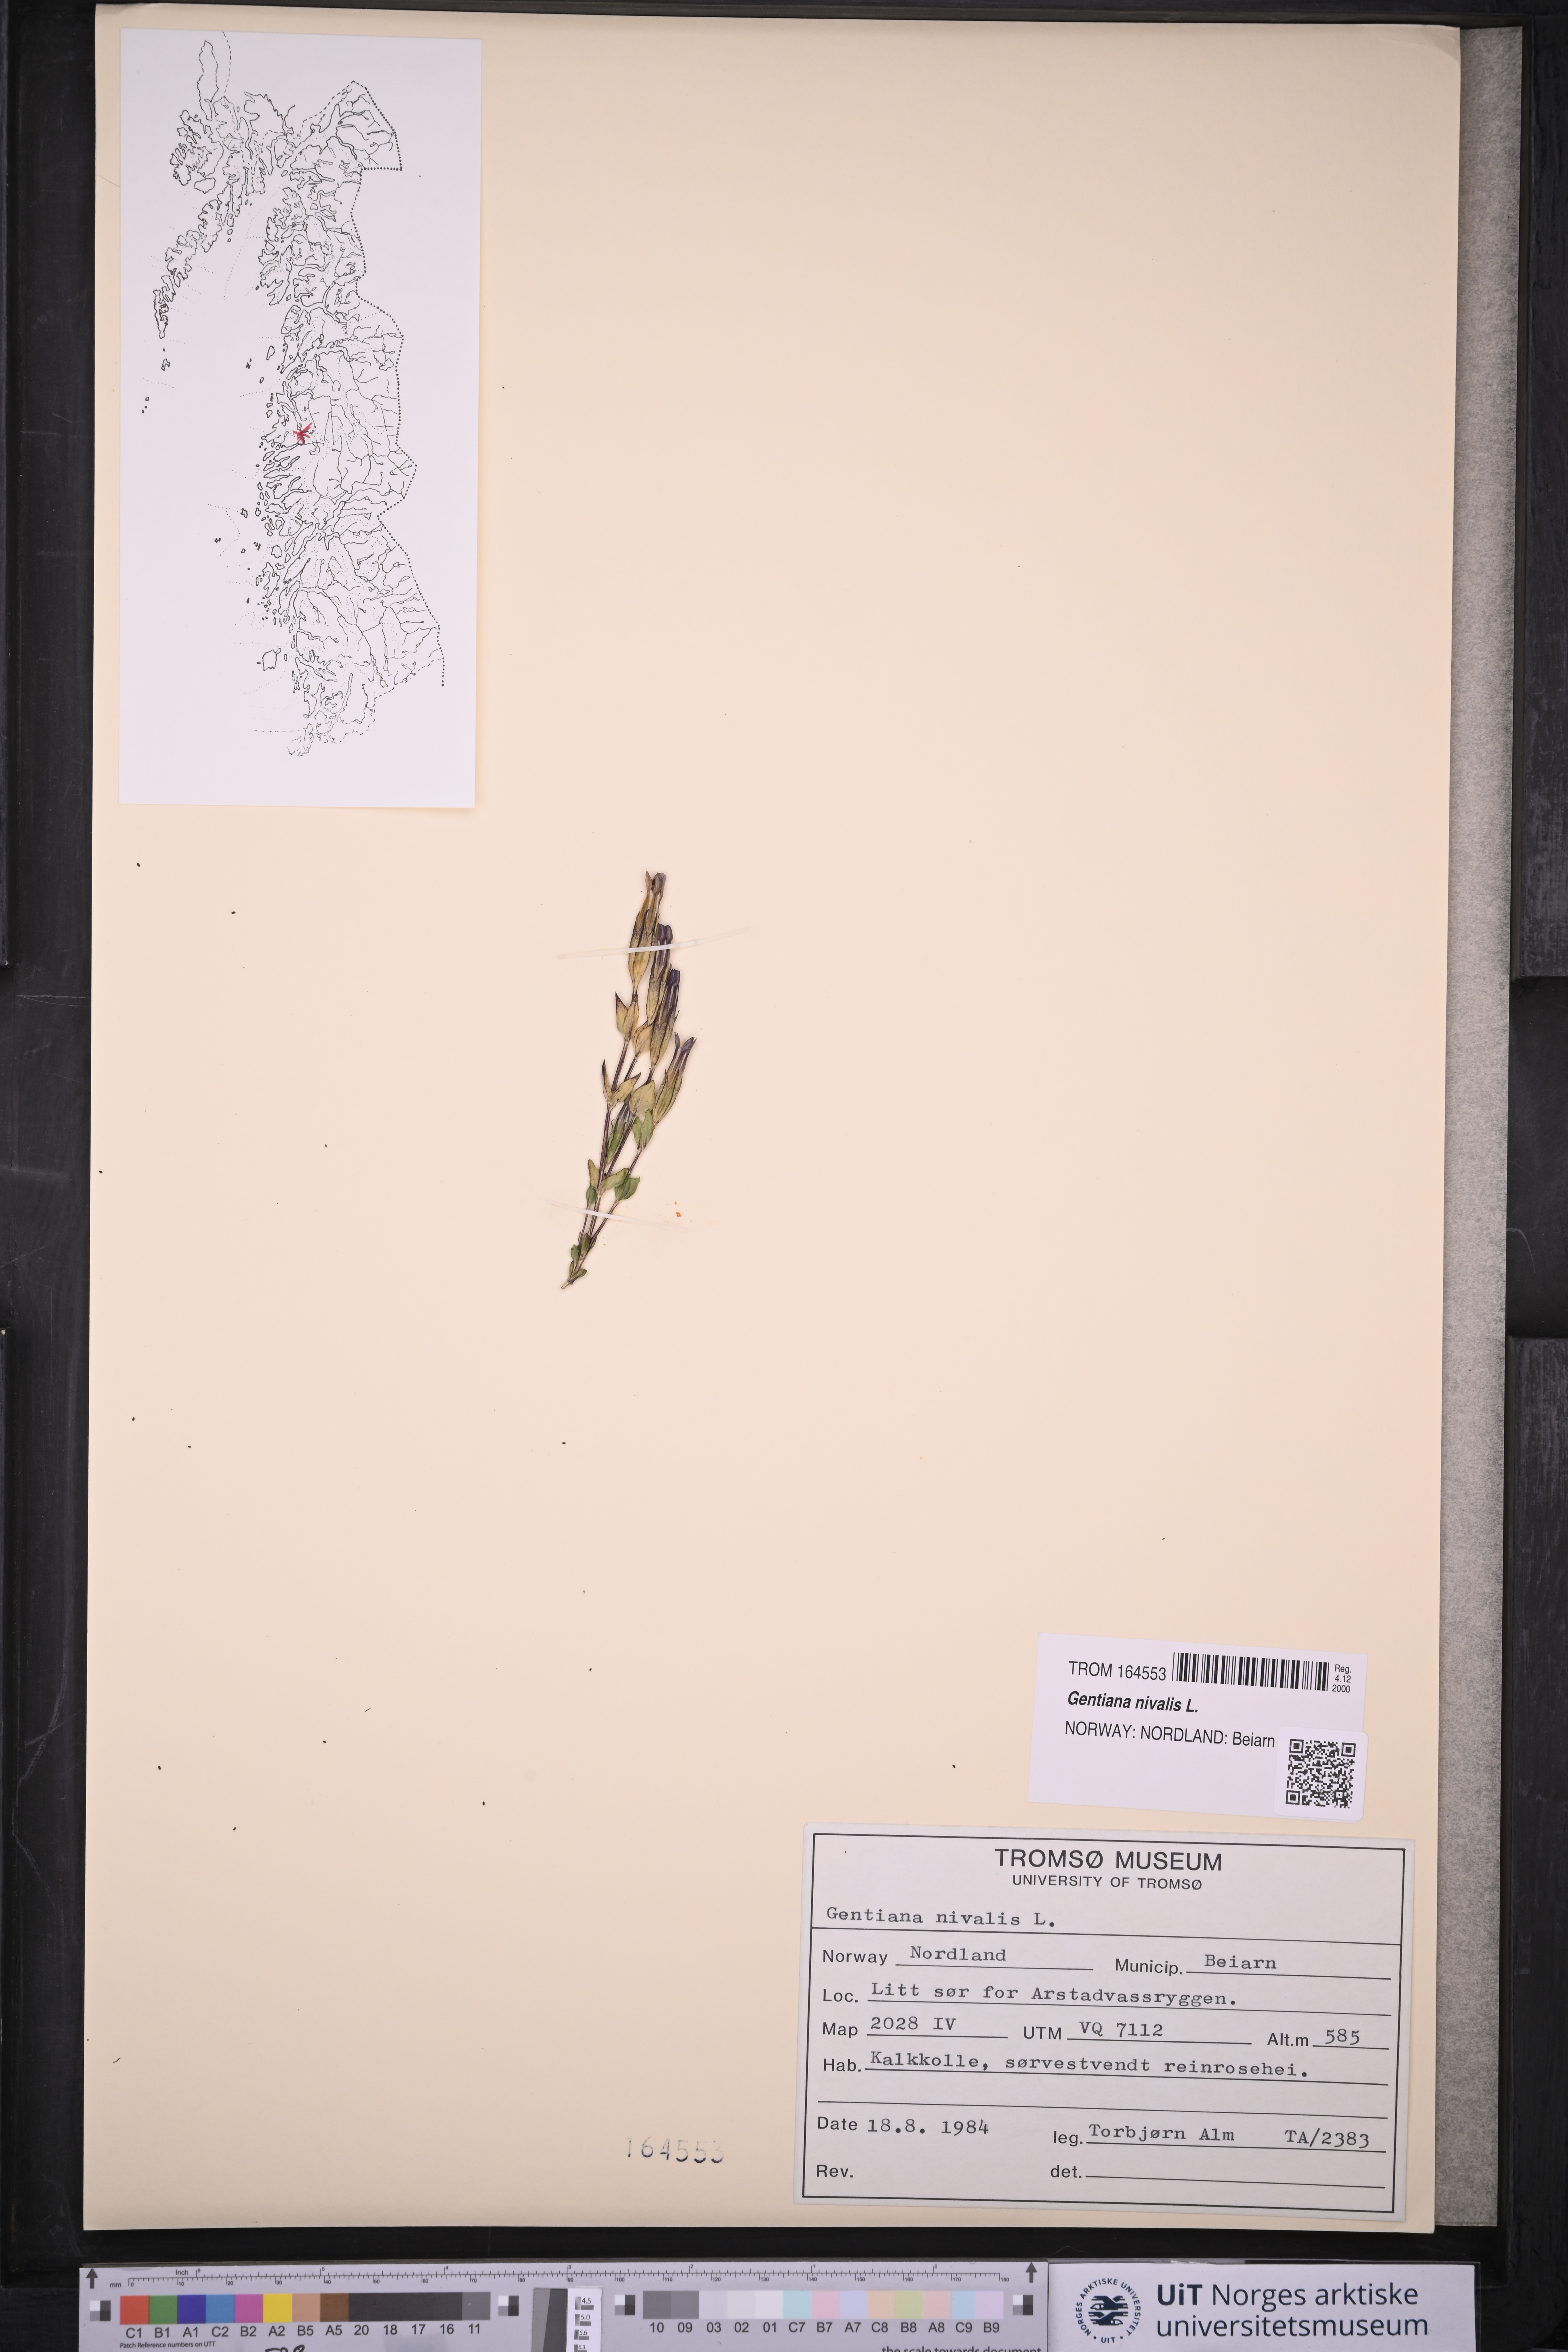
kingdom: Plantae
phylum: Tracheophyta
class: Magnoliopsida
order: Gentianales
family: Gentianaceae
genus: Gentiana
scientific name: Gentiana nivalis
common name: Alpine gentian
